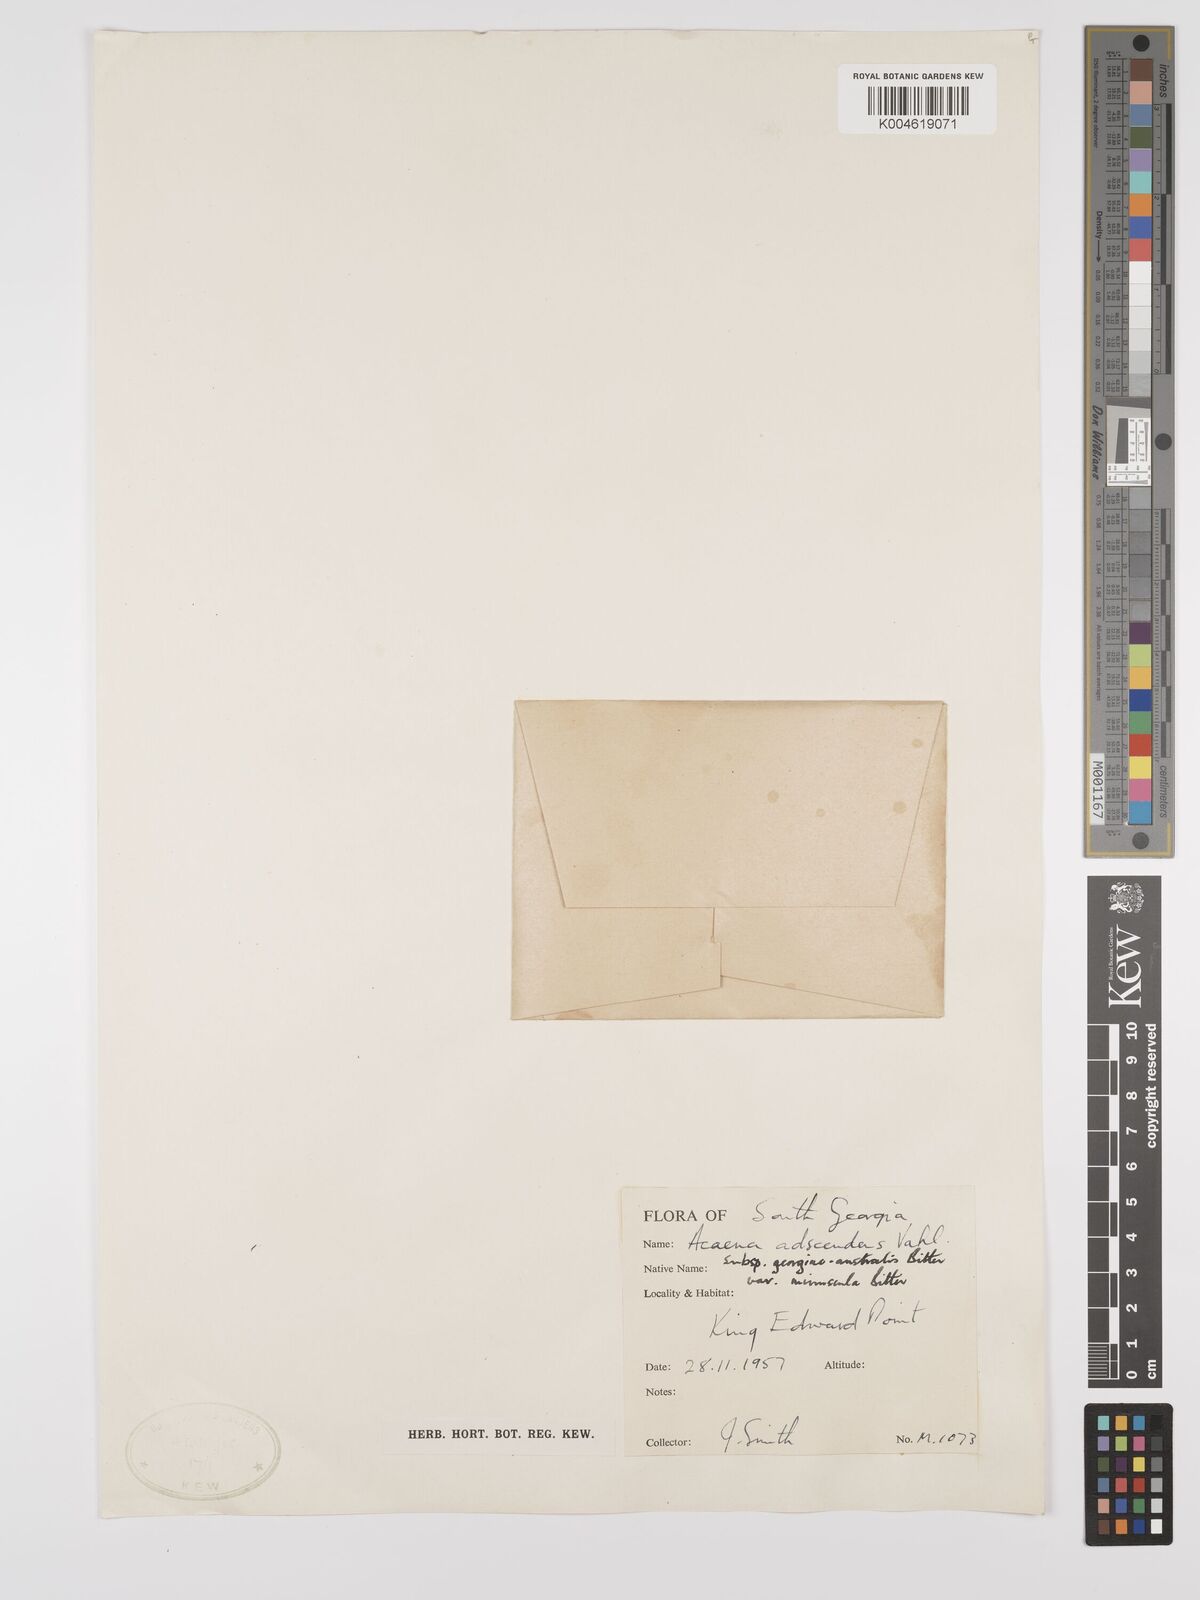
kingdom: Plantae
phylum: Tracheophyta
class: Magnoliopsida
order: Rosales
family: Rosaceae
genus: Acaena
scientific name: Acaena magellanica
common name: New zealand burr
